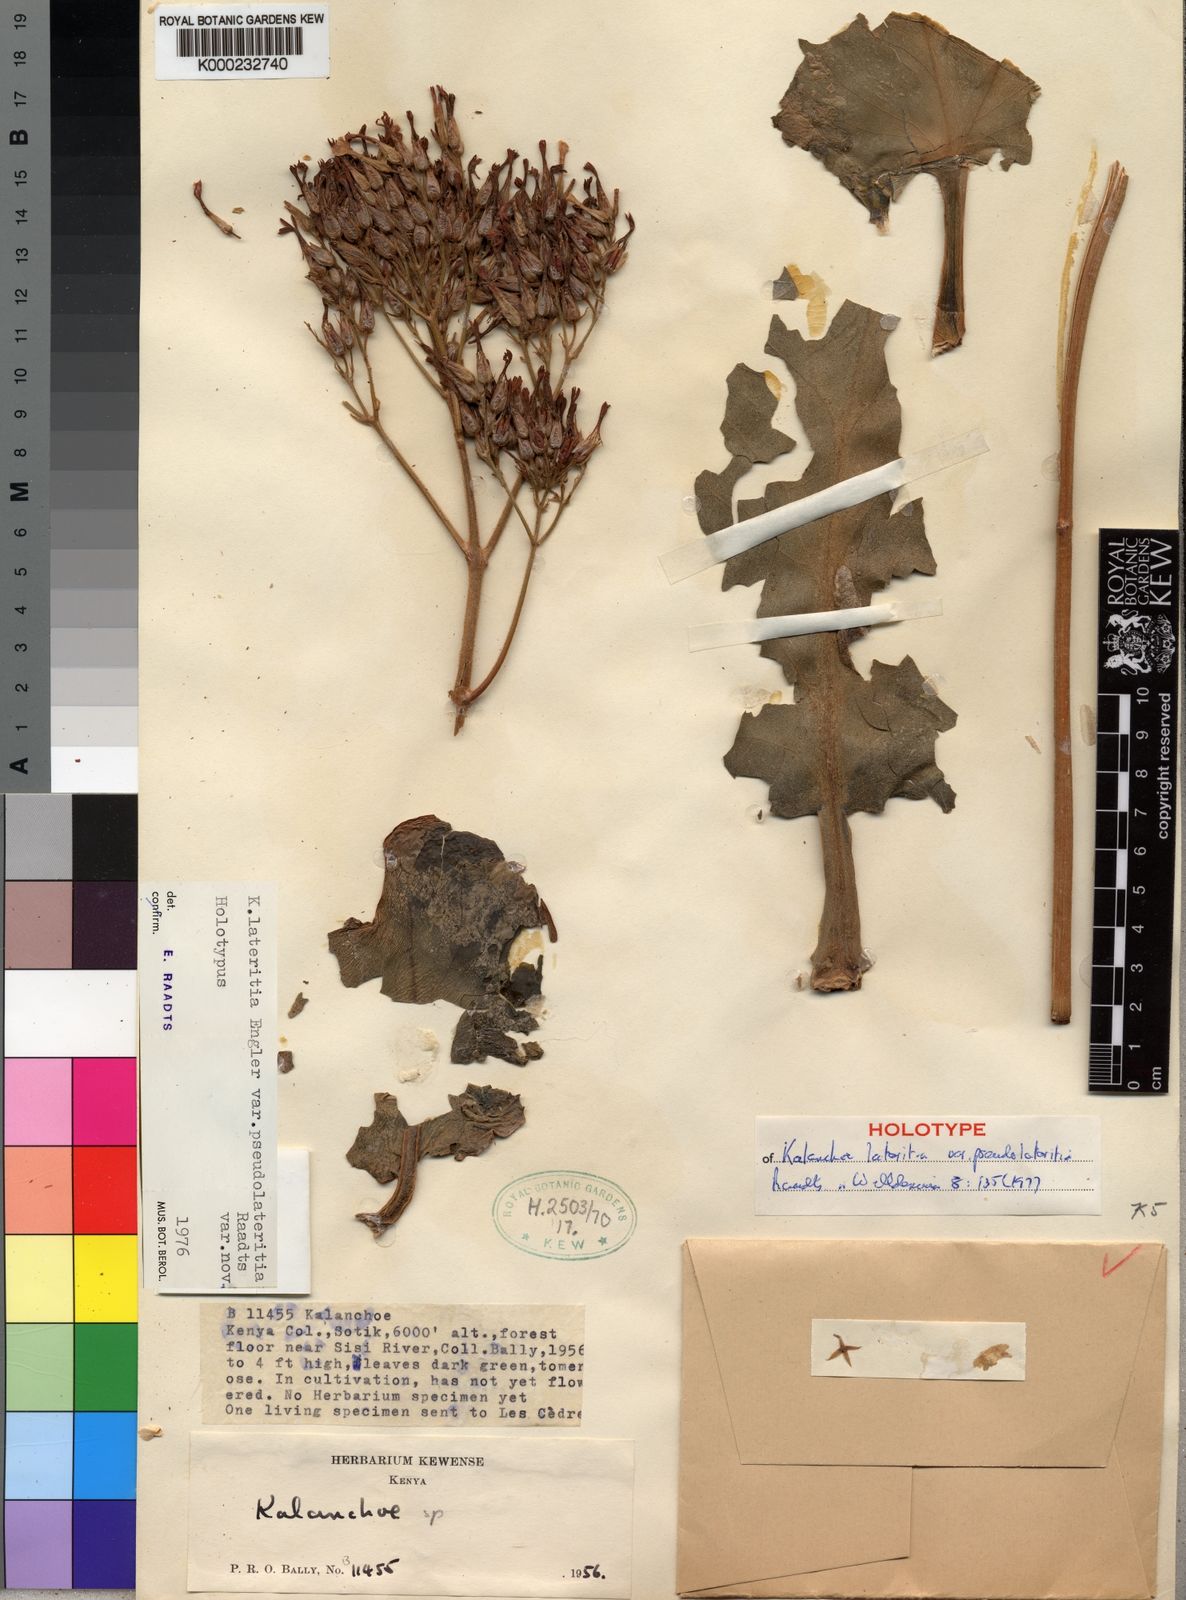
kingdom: Plantae
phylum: Tracheophyta
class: Magnoliopsida
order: Saxifragales
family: Crassulaceae
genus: Kalanchoe
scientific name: Kalanchoe lateritia
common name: Kalanchoe
